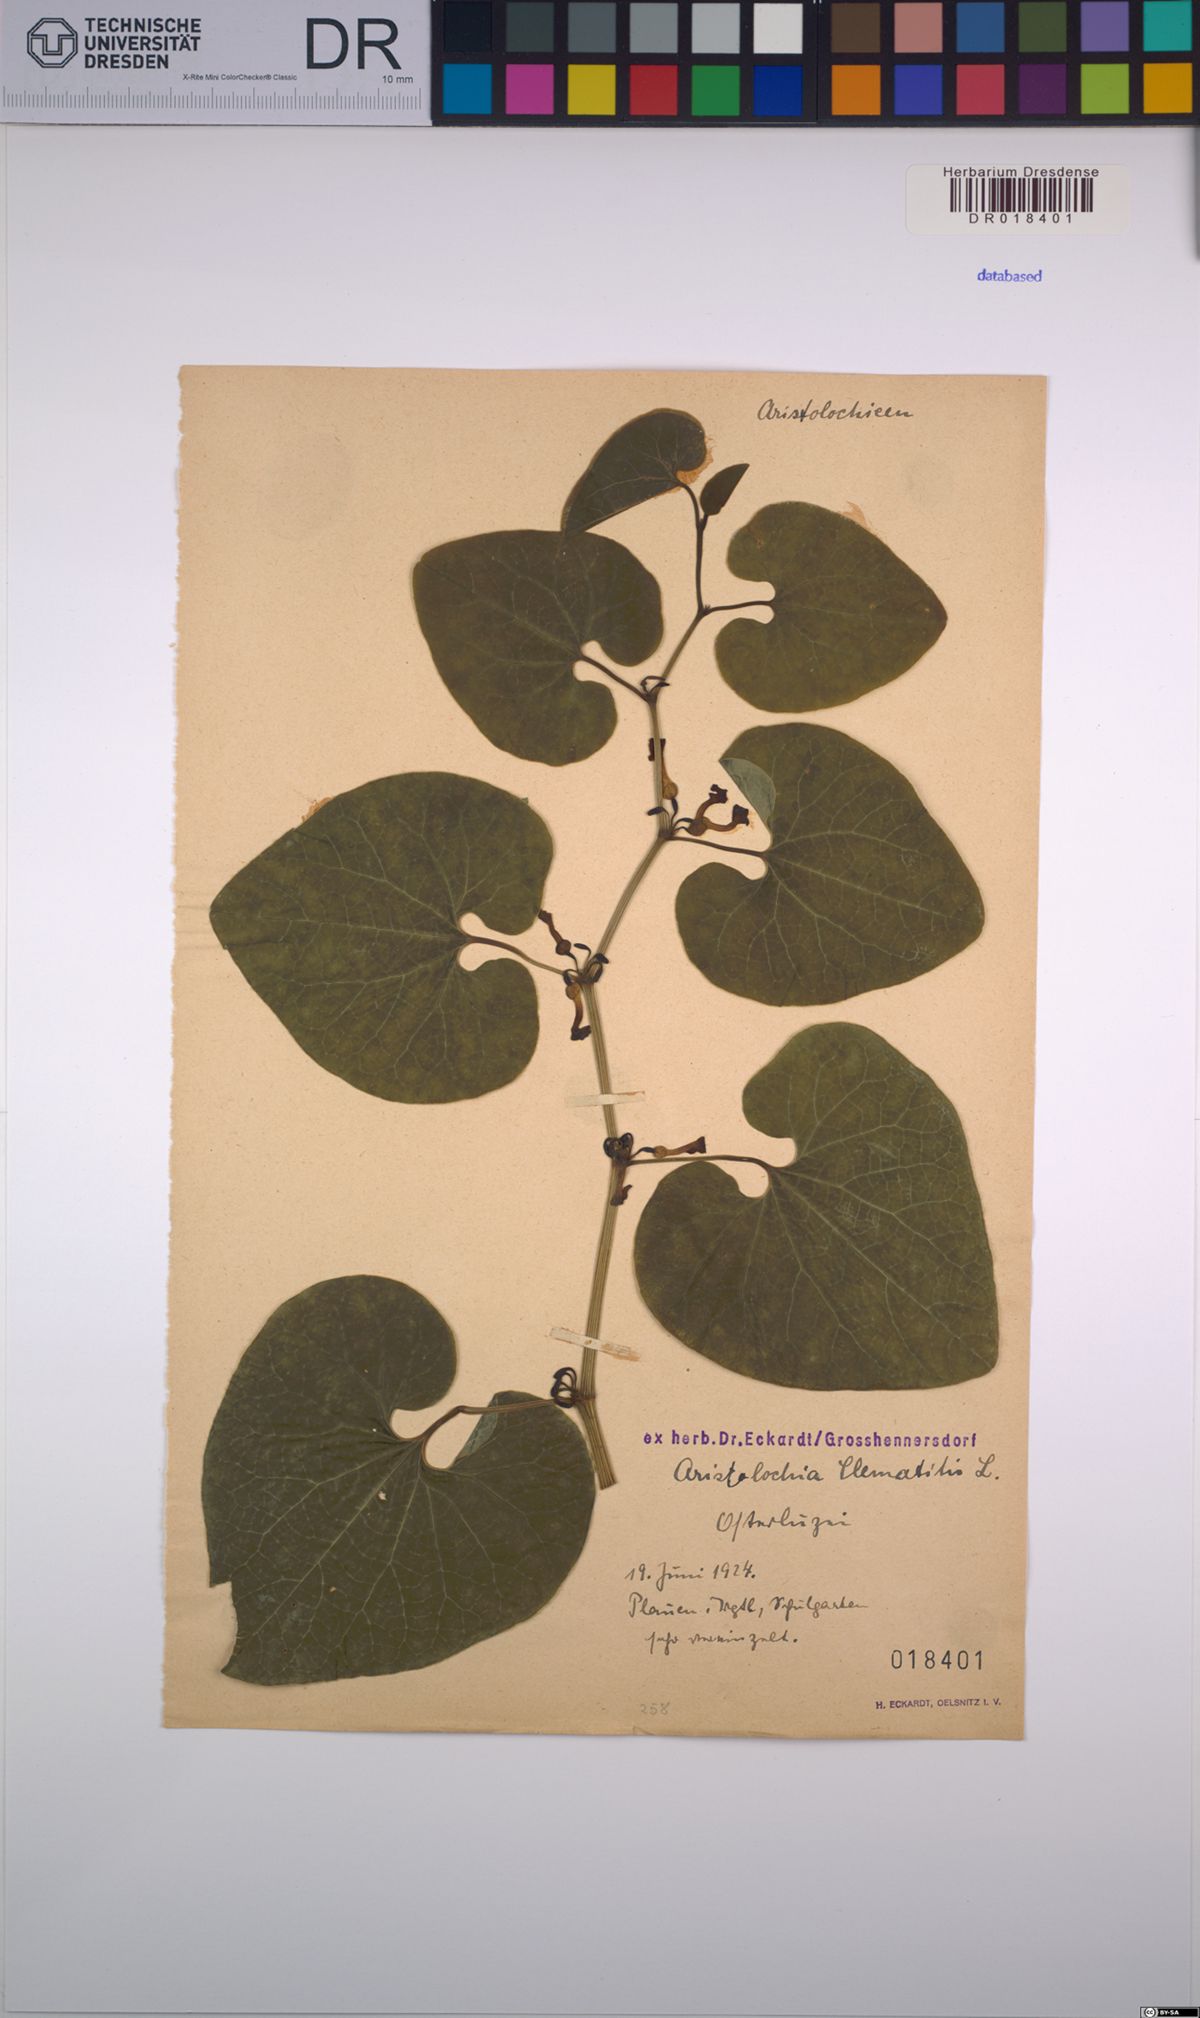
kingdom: Plantae
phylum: Tracheophyta
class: Magnoliopsida
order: Piperales
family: Aristolochiaceae
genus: Aristolochia
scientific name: Aristolochia clematitis
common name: Birthwort
